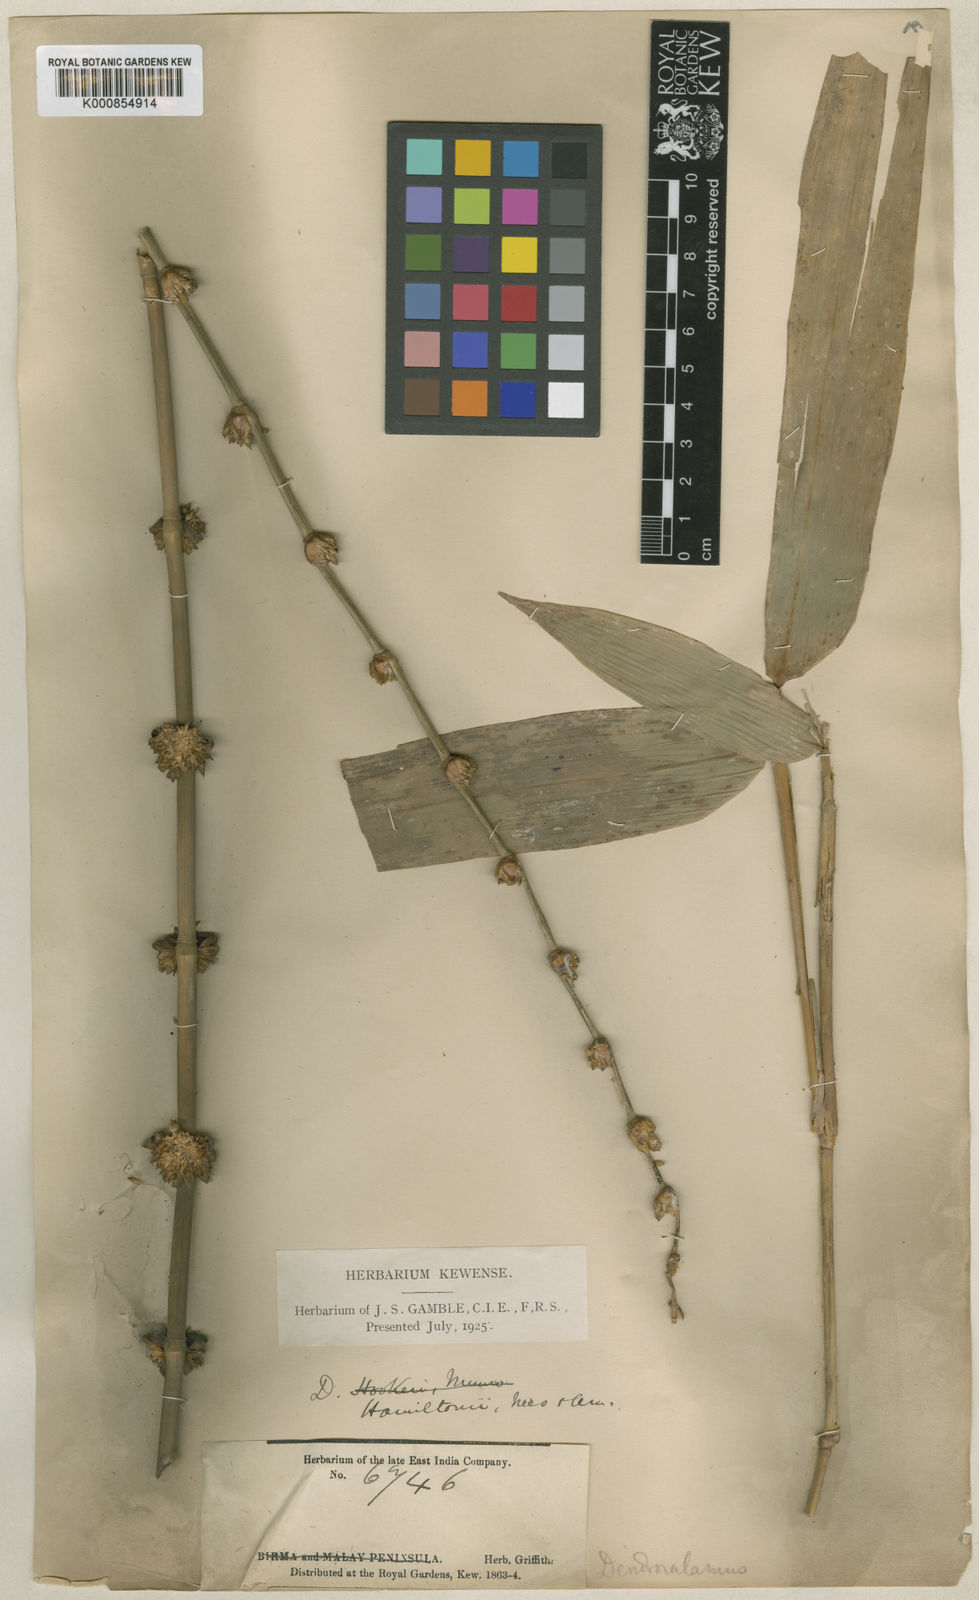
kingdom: Plantae
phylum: Tracheophyta
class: Liliopsida
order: Poales
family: Poaceae
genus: Dendrocalamus
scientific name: Dendrocalamus hamiltonii
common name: Tama bamboo
